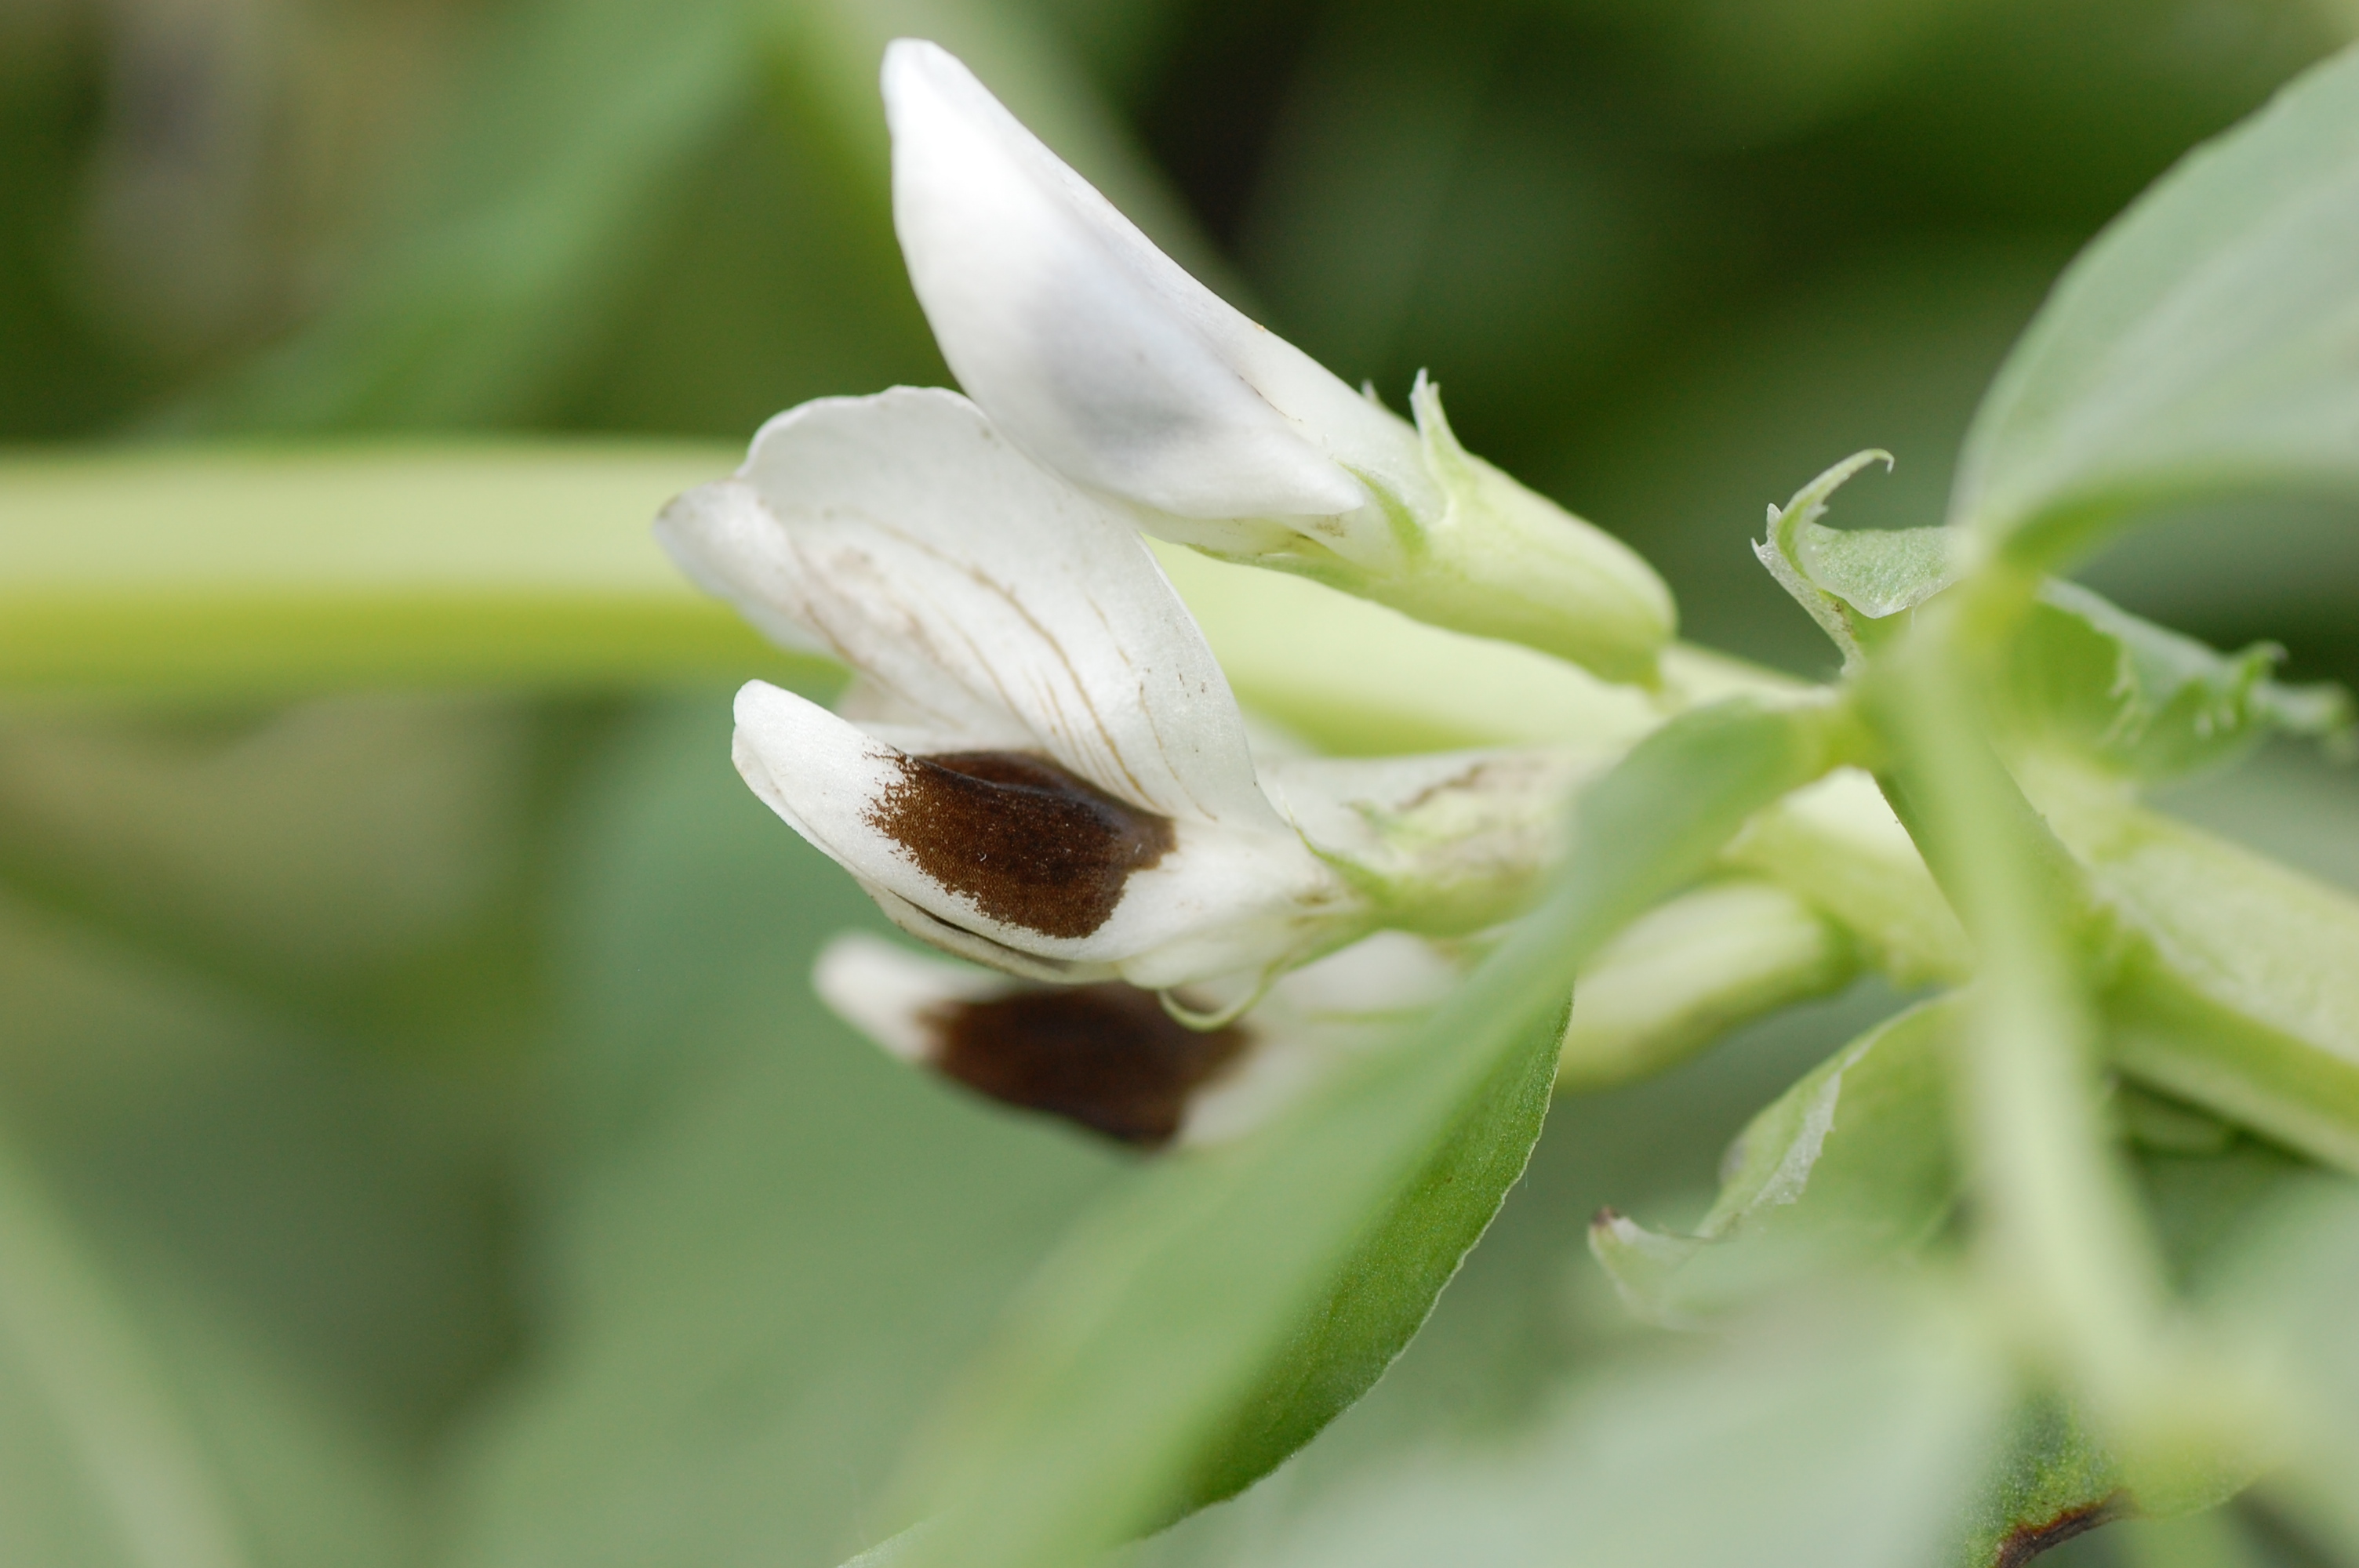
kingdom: Plantae
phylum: Tracheophyta
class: Magnoliopsida
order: Fabales
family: Fabaceae
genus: Vicia
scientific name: Vicia faba
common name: Broad bean
